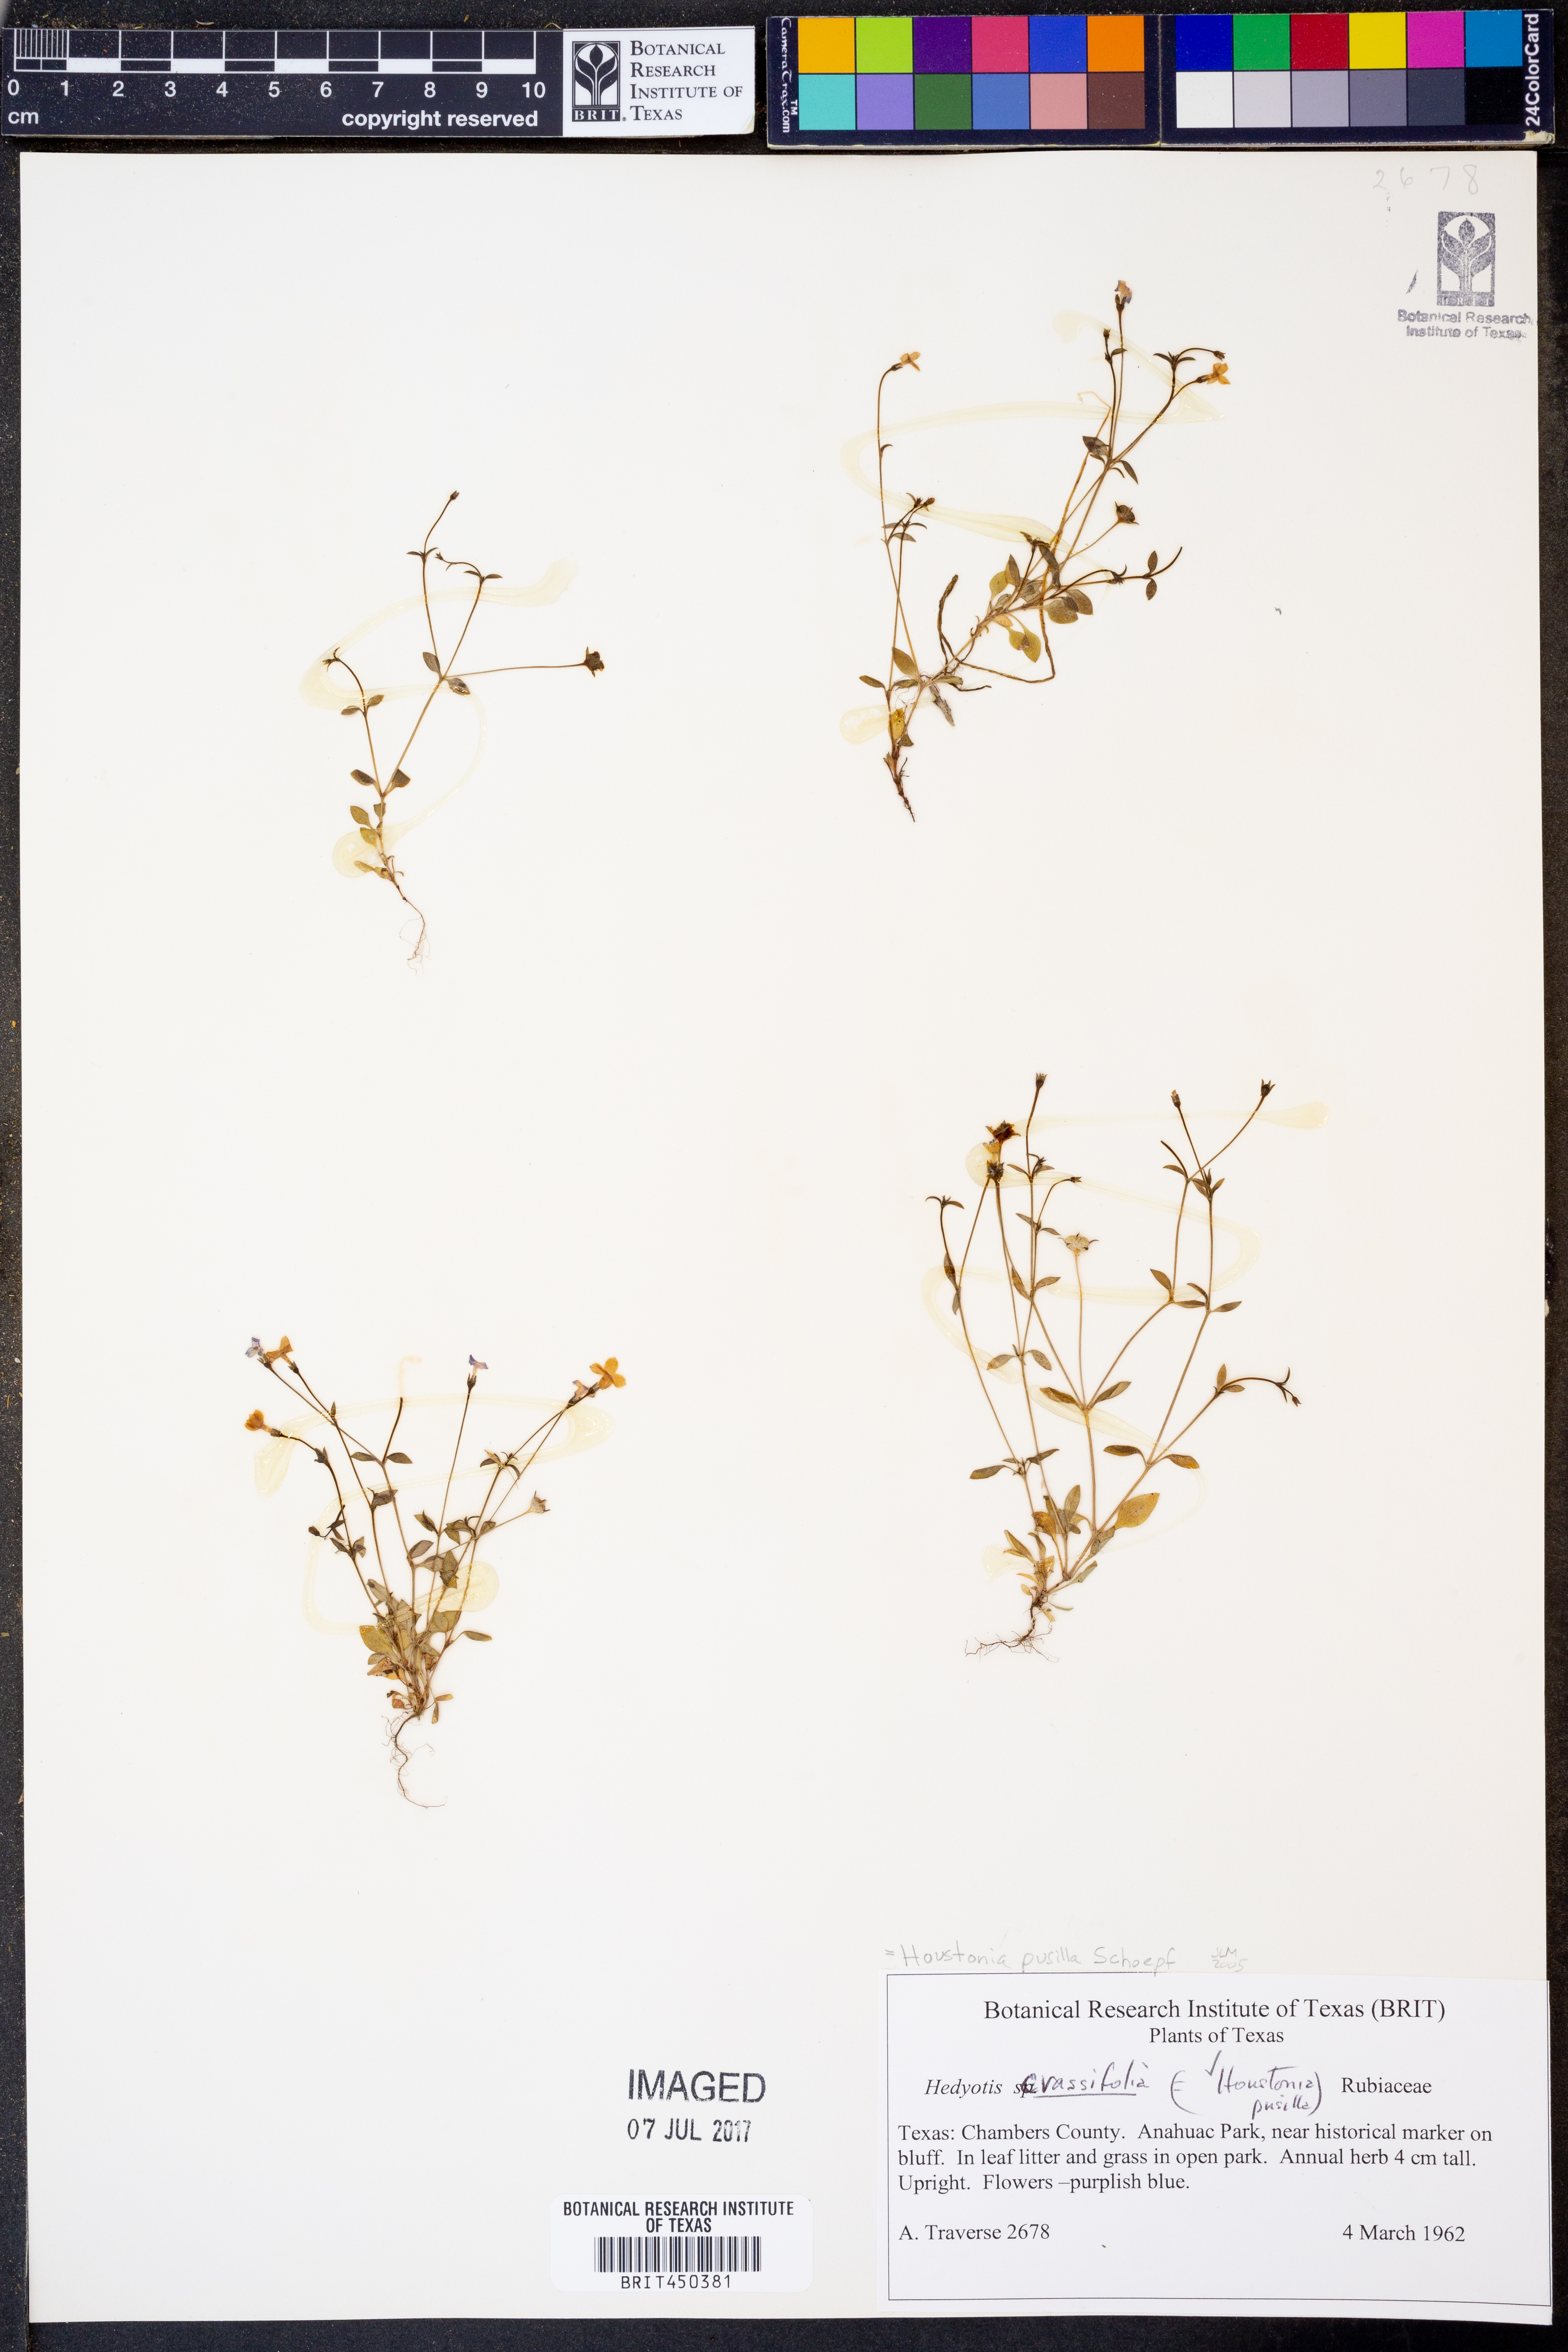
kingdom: Plantae
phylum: Tracheophyta
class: Magnoliopsida
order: Gentianales
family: Rubiaceae
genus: Houstonia
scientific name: Houstonia pusilla
